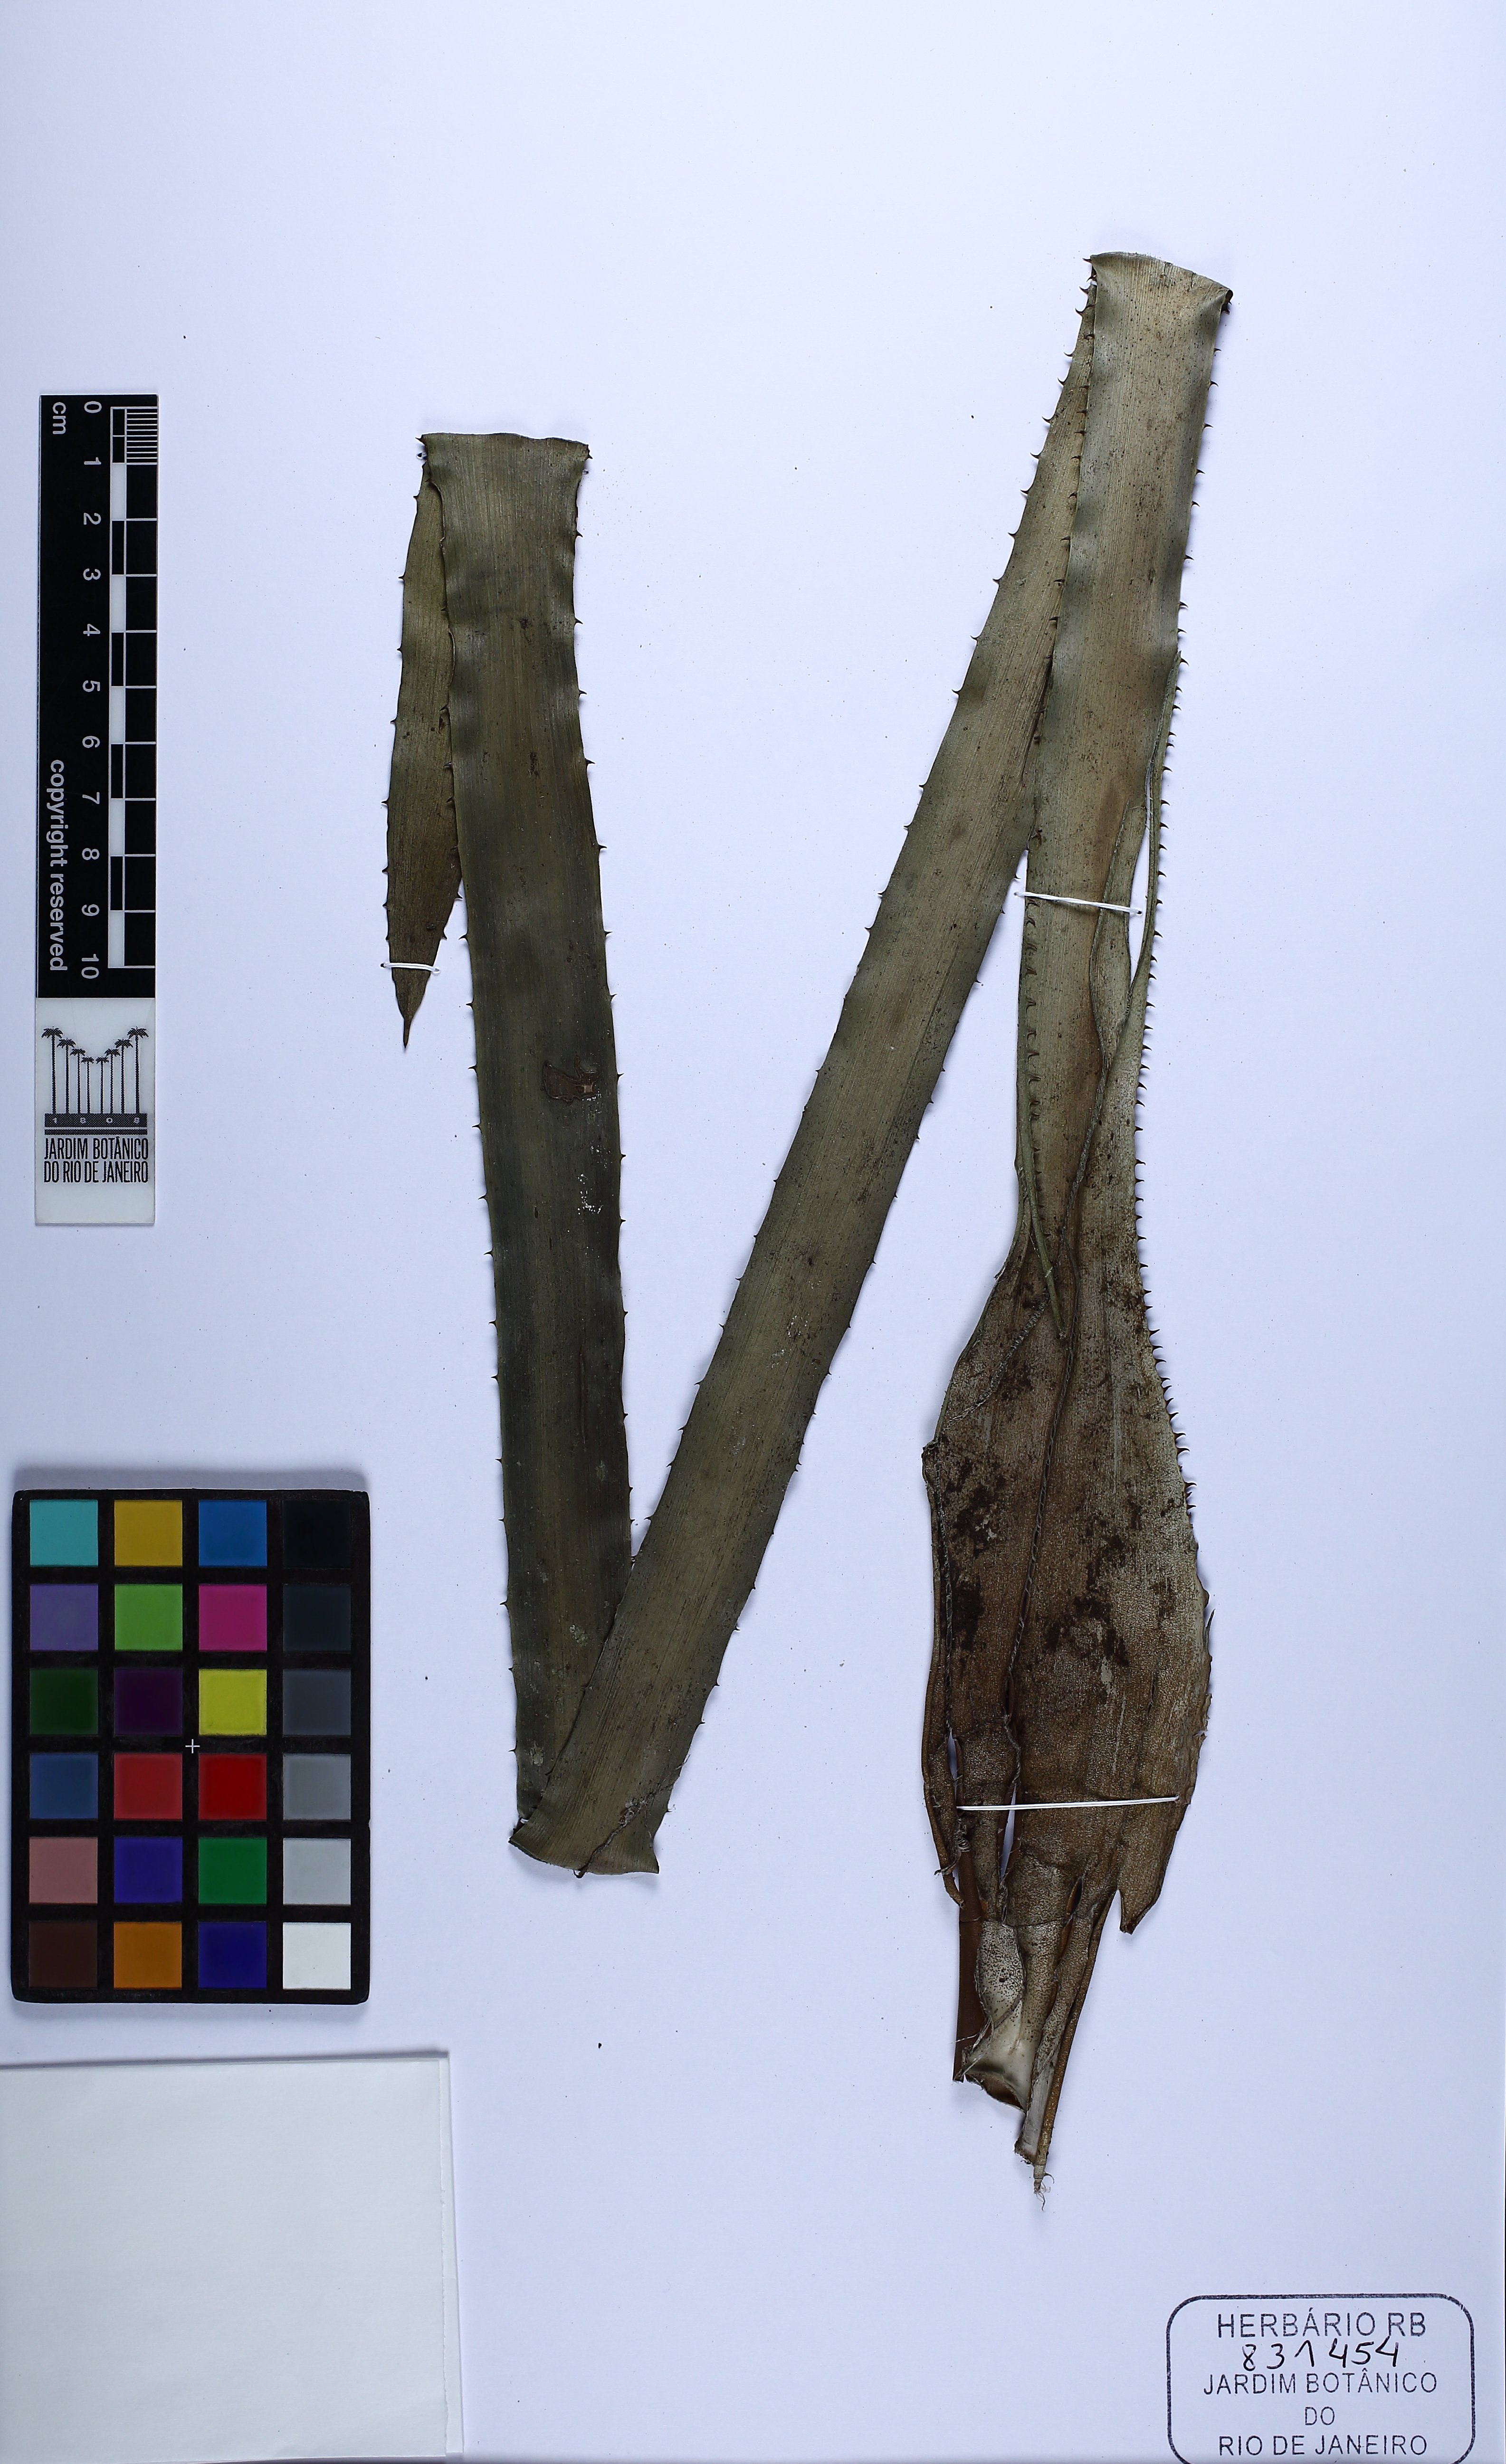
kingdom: Plantae
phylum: Tracheophyta
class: Liliopsida
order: Poales
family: Bromeliaceae
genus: Aechmea
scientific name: Aechmea araneosa
